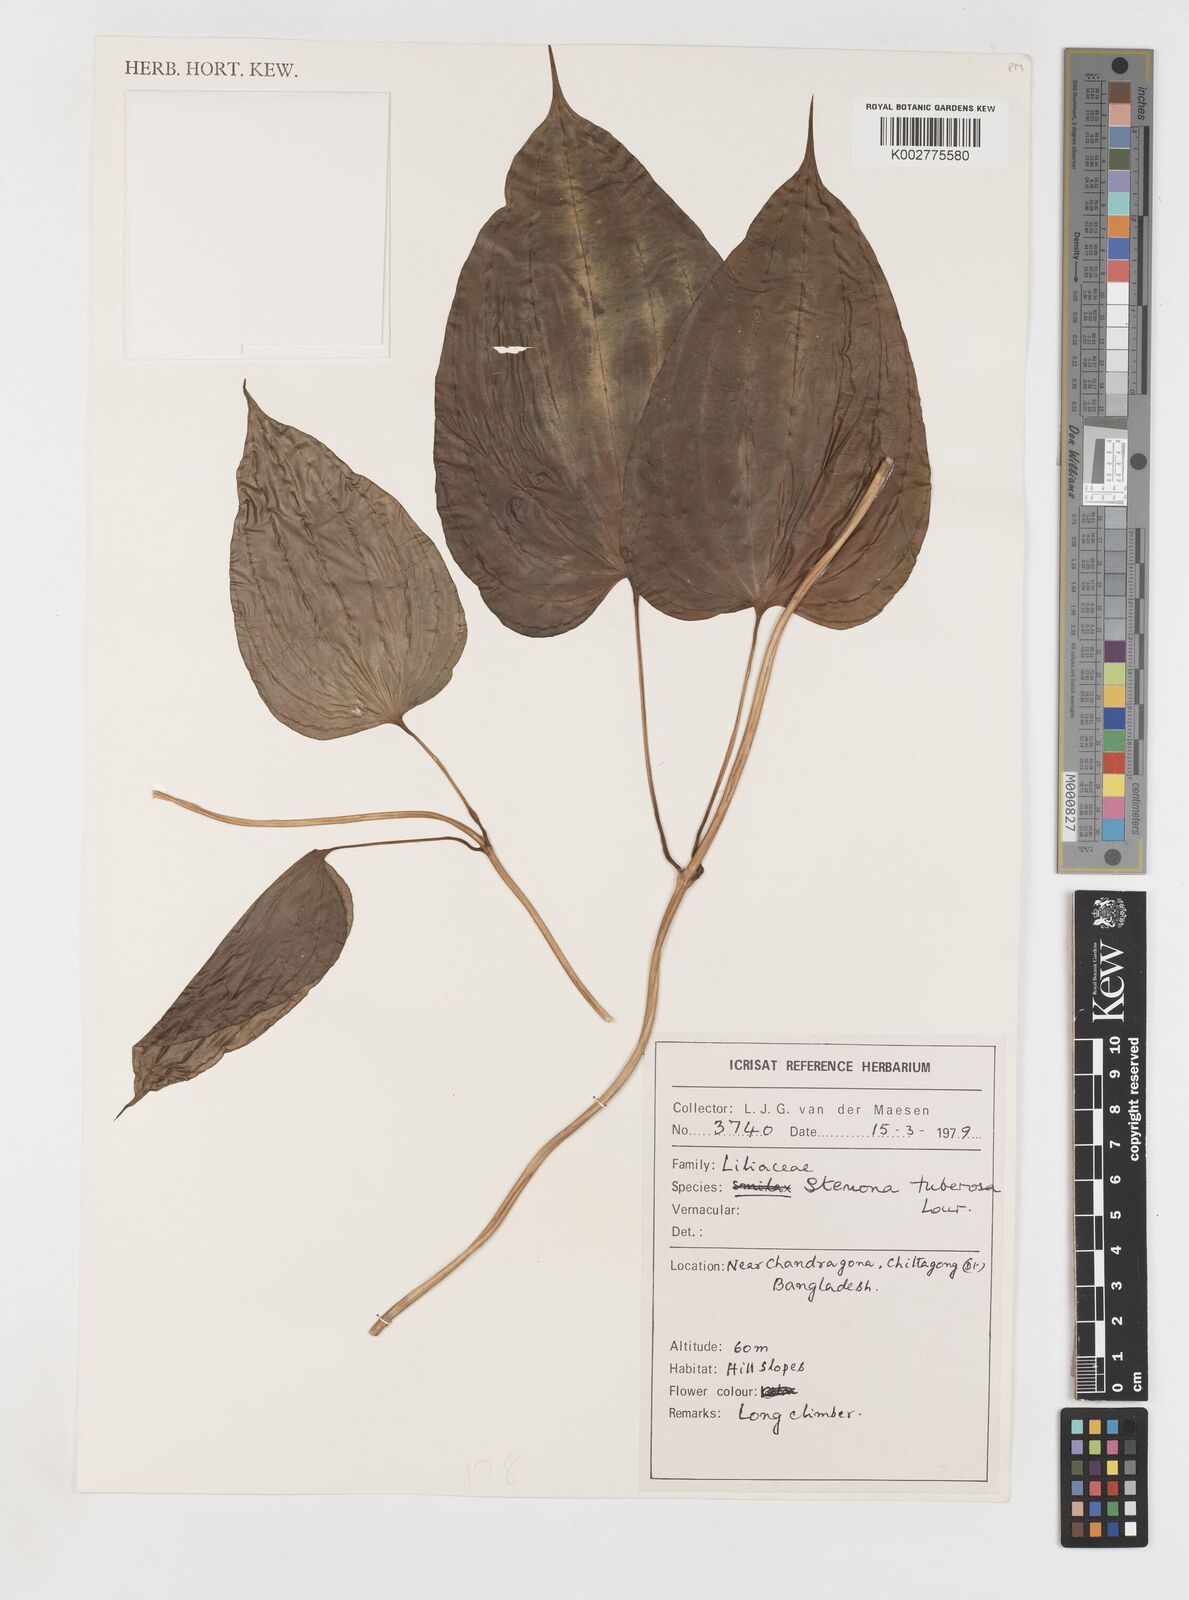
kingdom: Plantae
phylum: Tracheophyta
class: Liliopsida
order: Pandanales
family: Stemonaceae
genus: Stemona
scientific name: Stemona tuberosa
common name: Stemona
